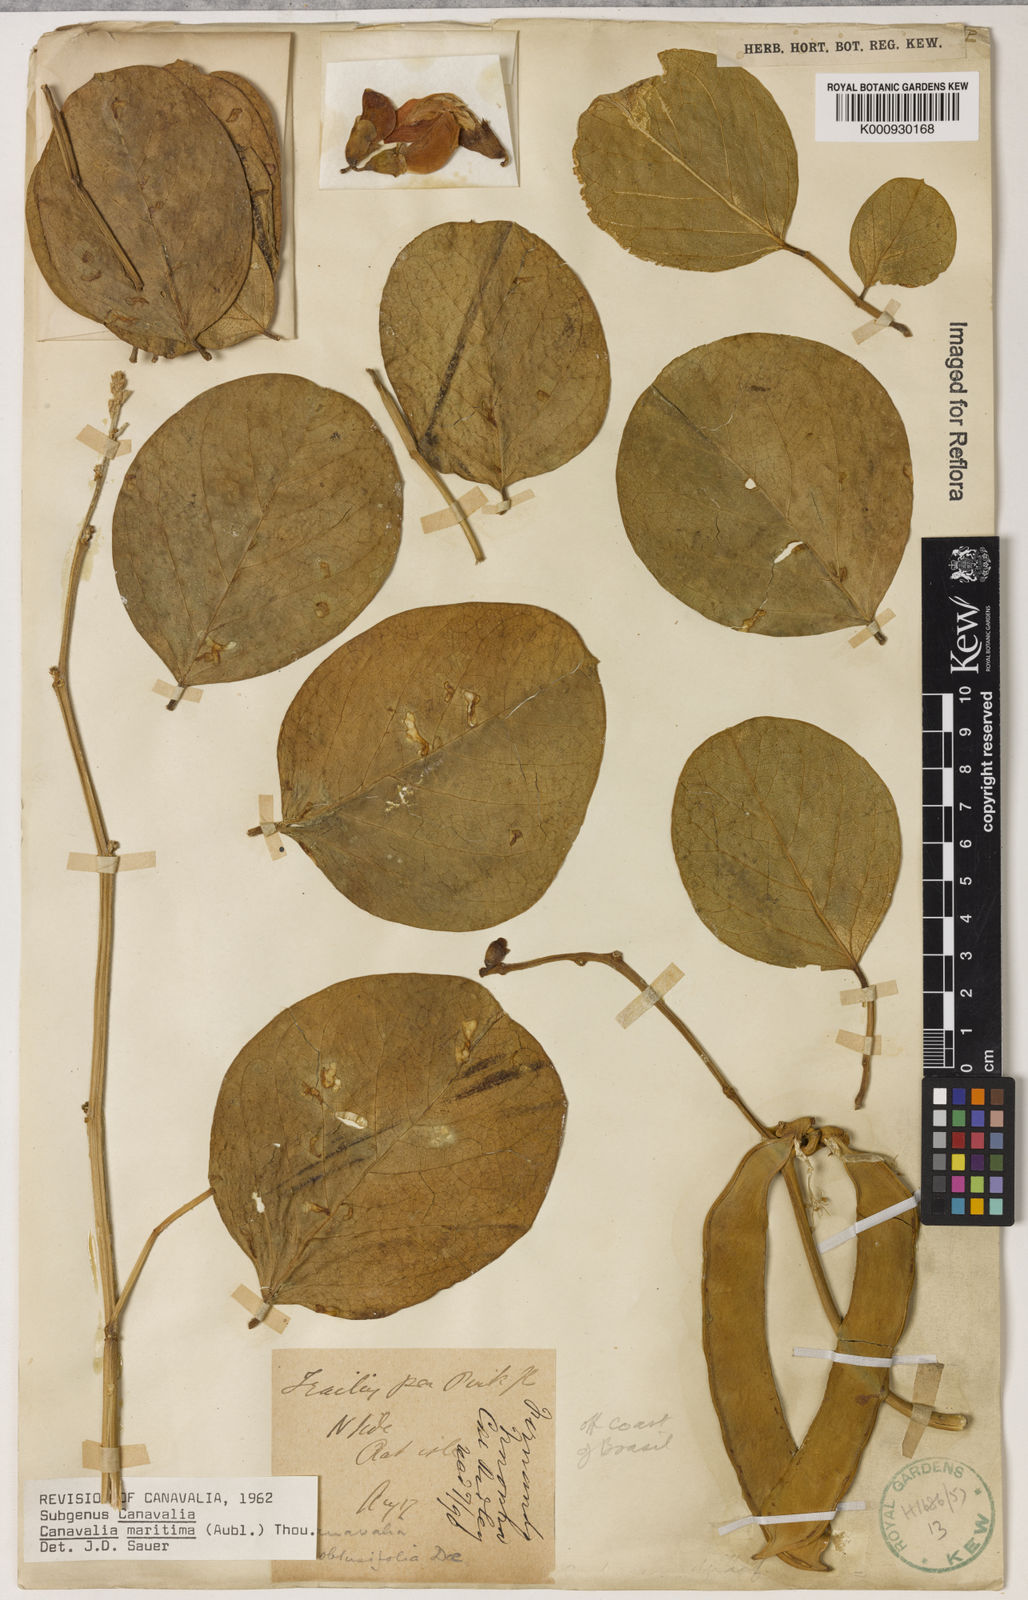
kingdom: Plantae
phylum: Tracheophyta
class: Magnoliopsida
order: Fabales
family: Fabaceae
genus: Canavalia
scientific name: Canavalia rosea
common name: Beach-bean
